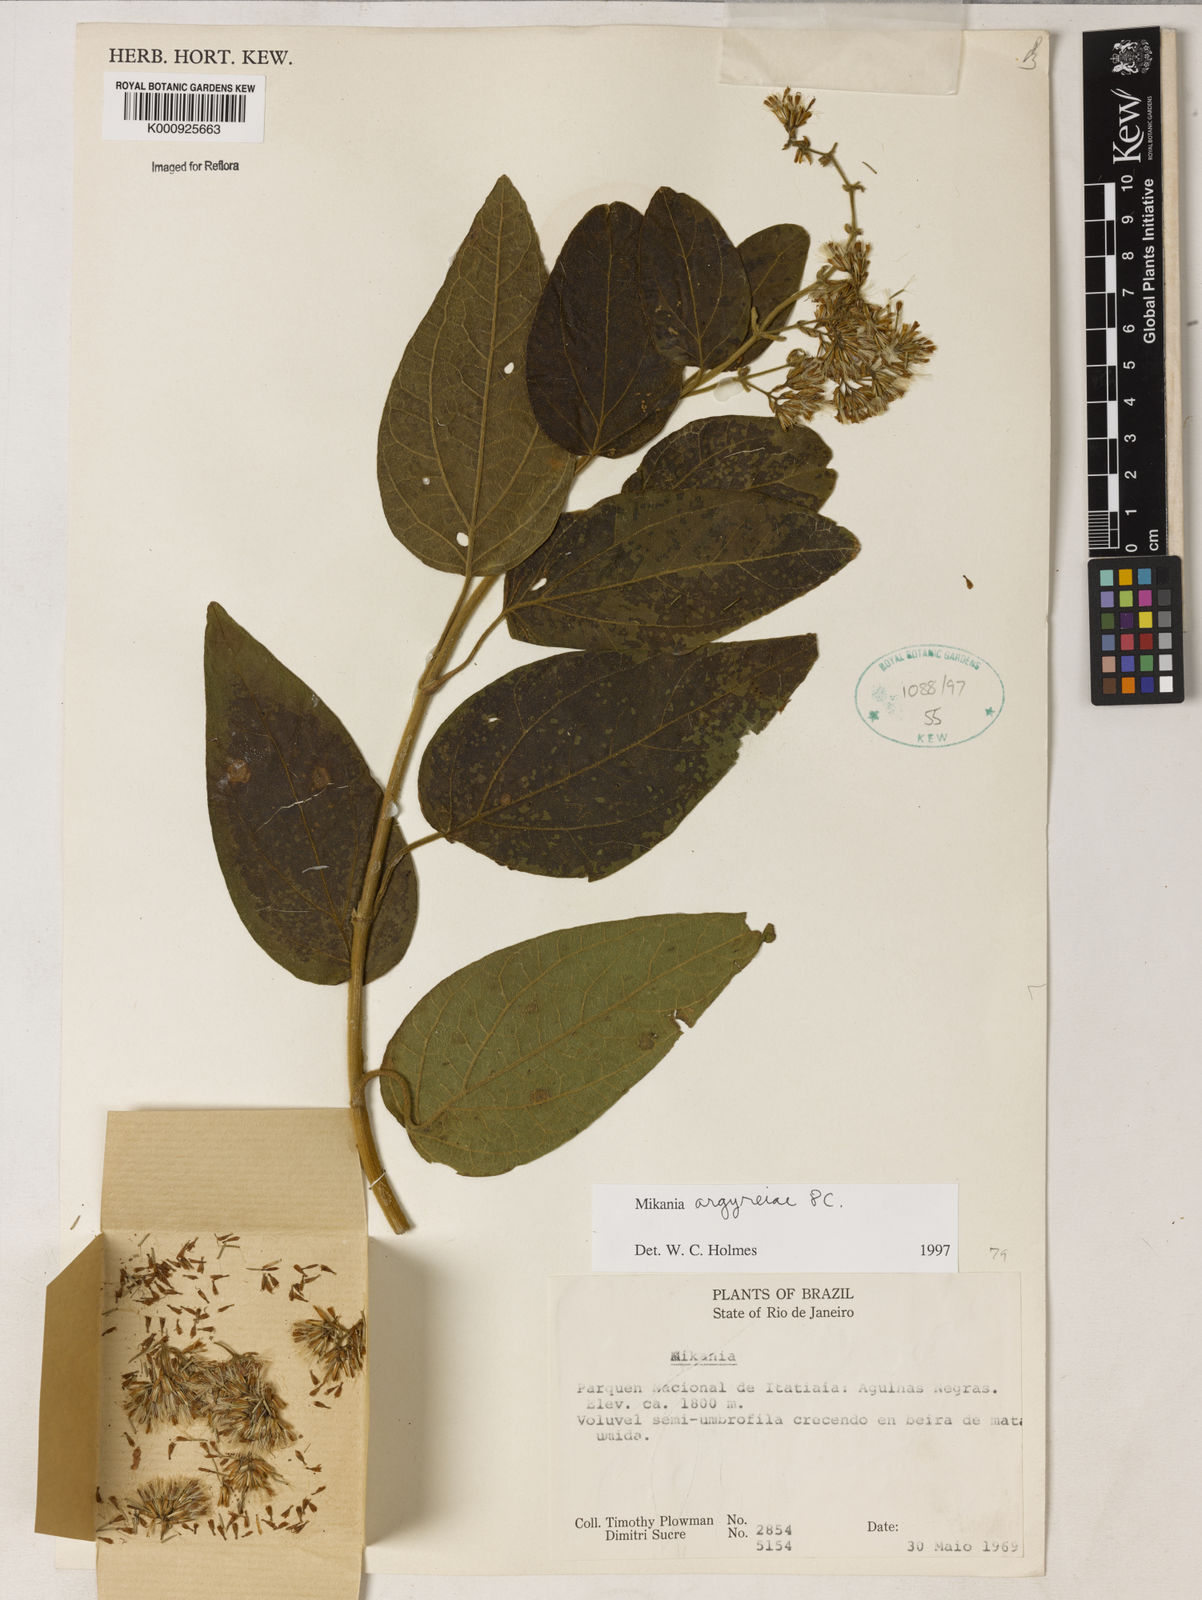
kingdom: Plantae
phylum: Tracheophyta
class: Magnoliopsida
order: Asterales
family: Asteraceae
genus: Mikania
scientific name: Mikania
